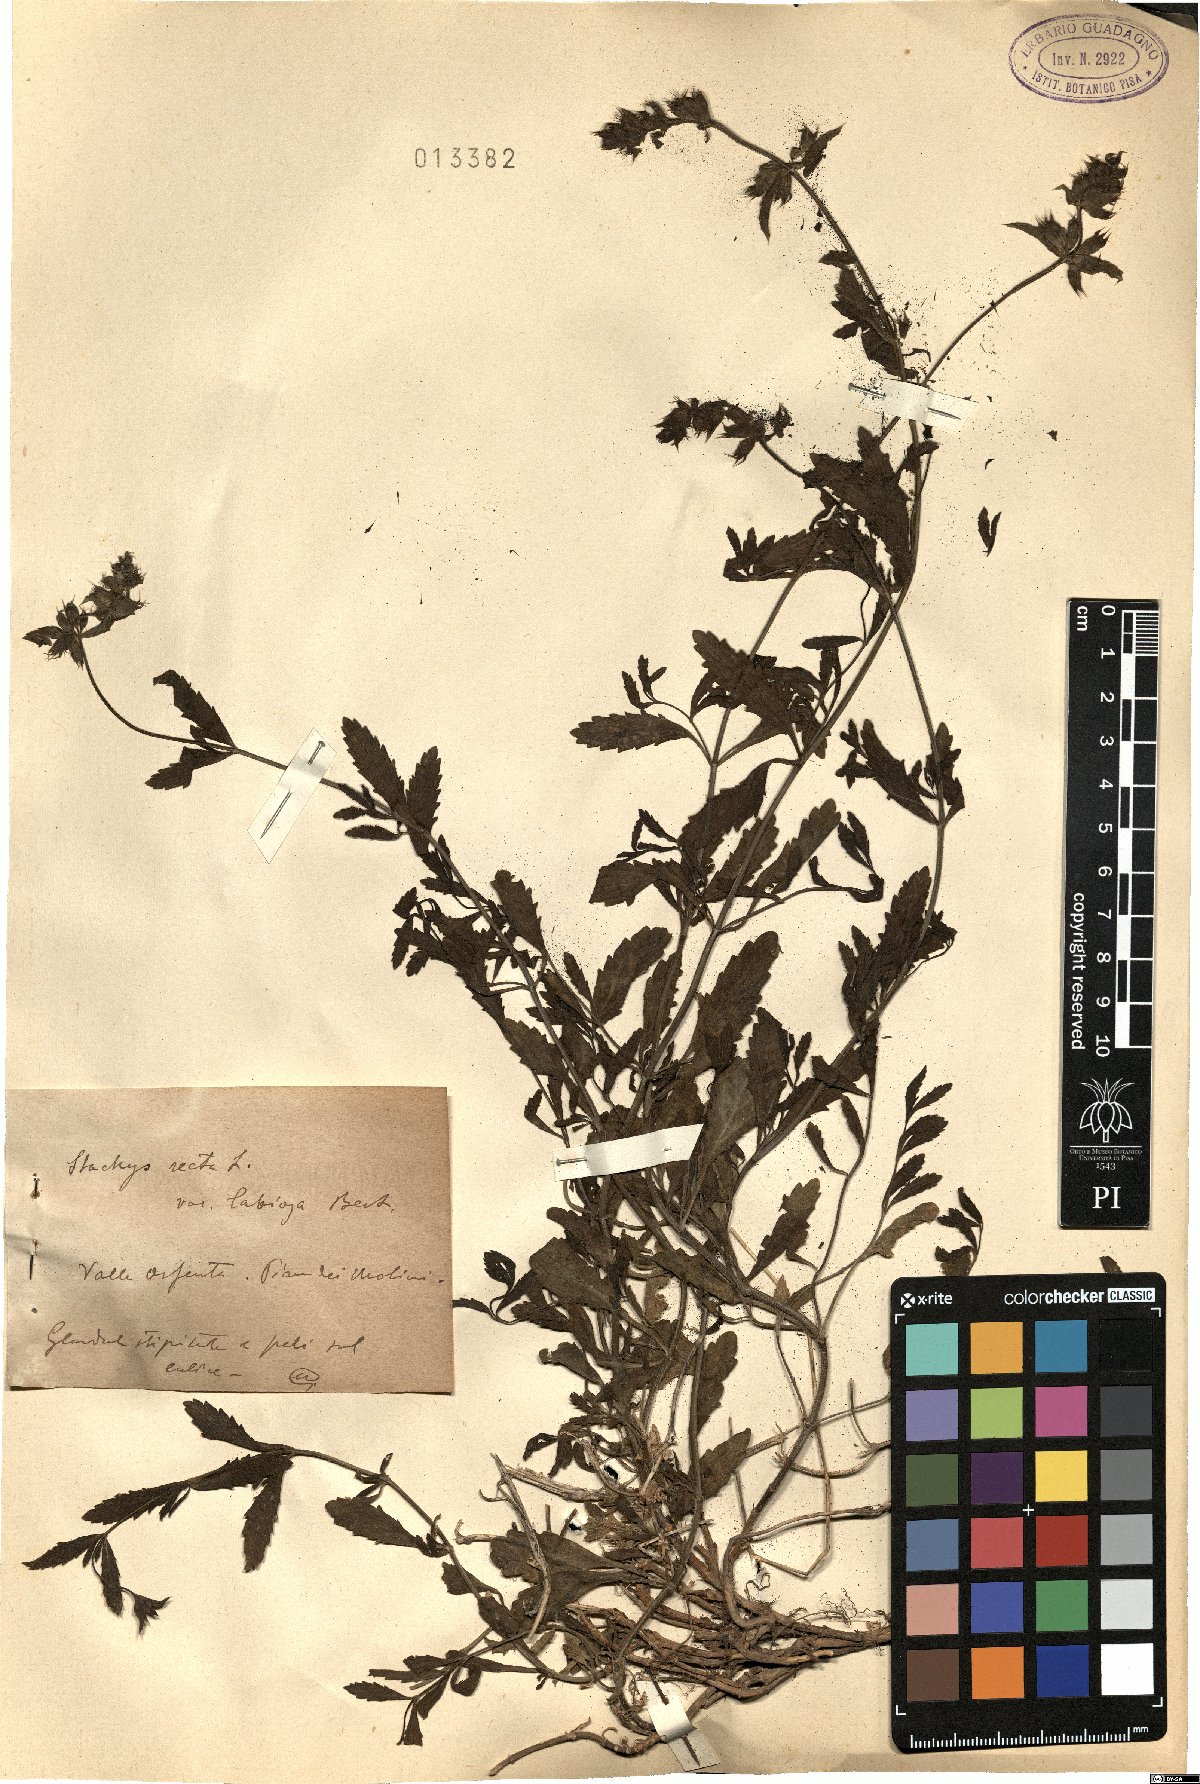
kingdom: Plantae
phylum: Tracheophyta
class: Magnoliopsida
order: Lamiales
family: Lamiaceae
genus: Stachys
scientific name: Stachys recta
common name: Perennial yellow-woundwort
